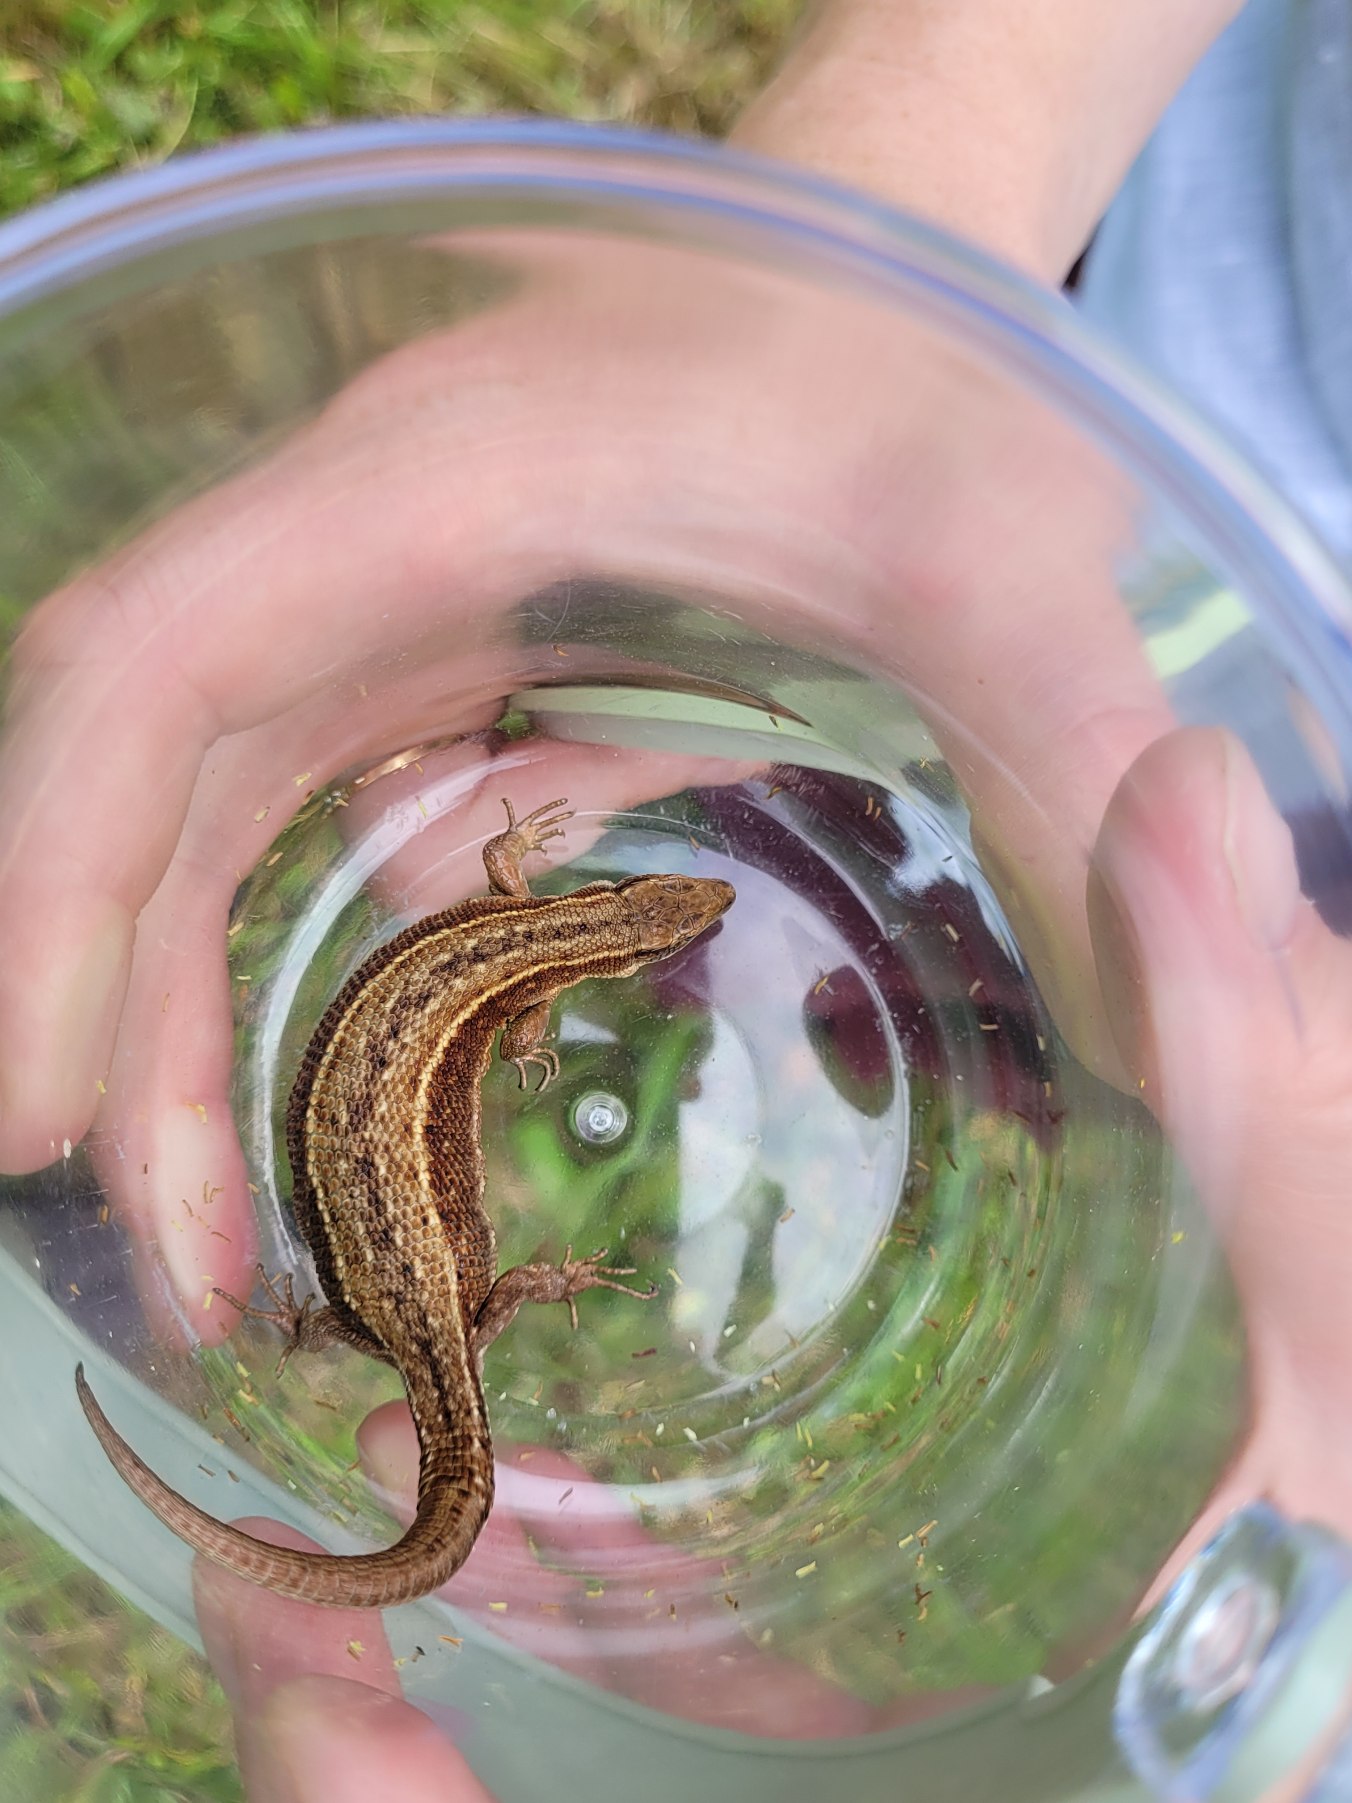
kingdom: Animalia
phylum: Chordata
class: Squamata
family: Lacertidae
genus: Zootoca
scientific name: Zootoca vivipara
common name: Skovfirben
